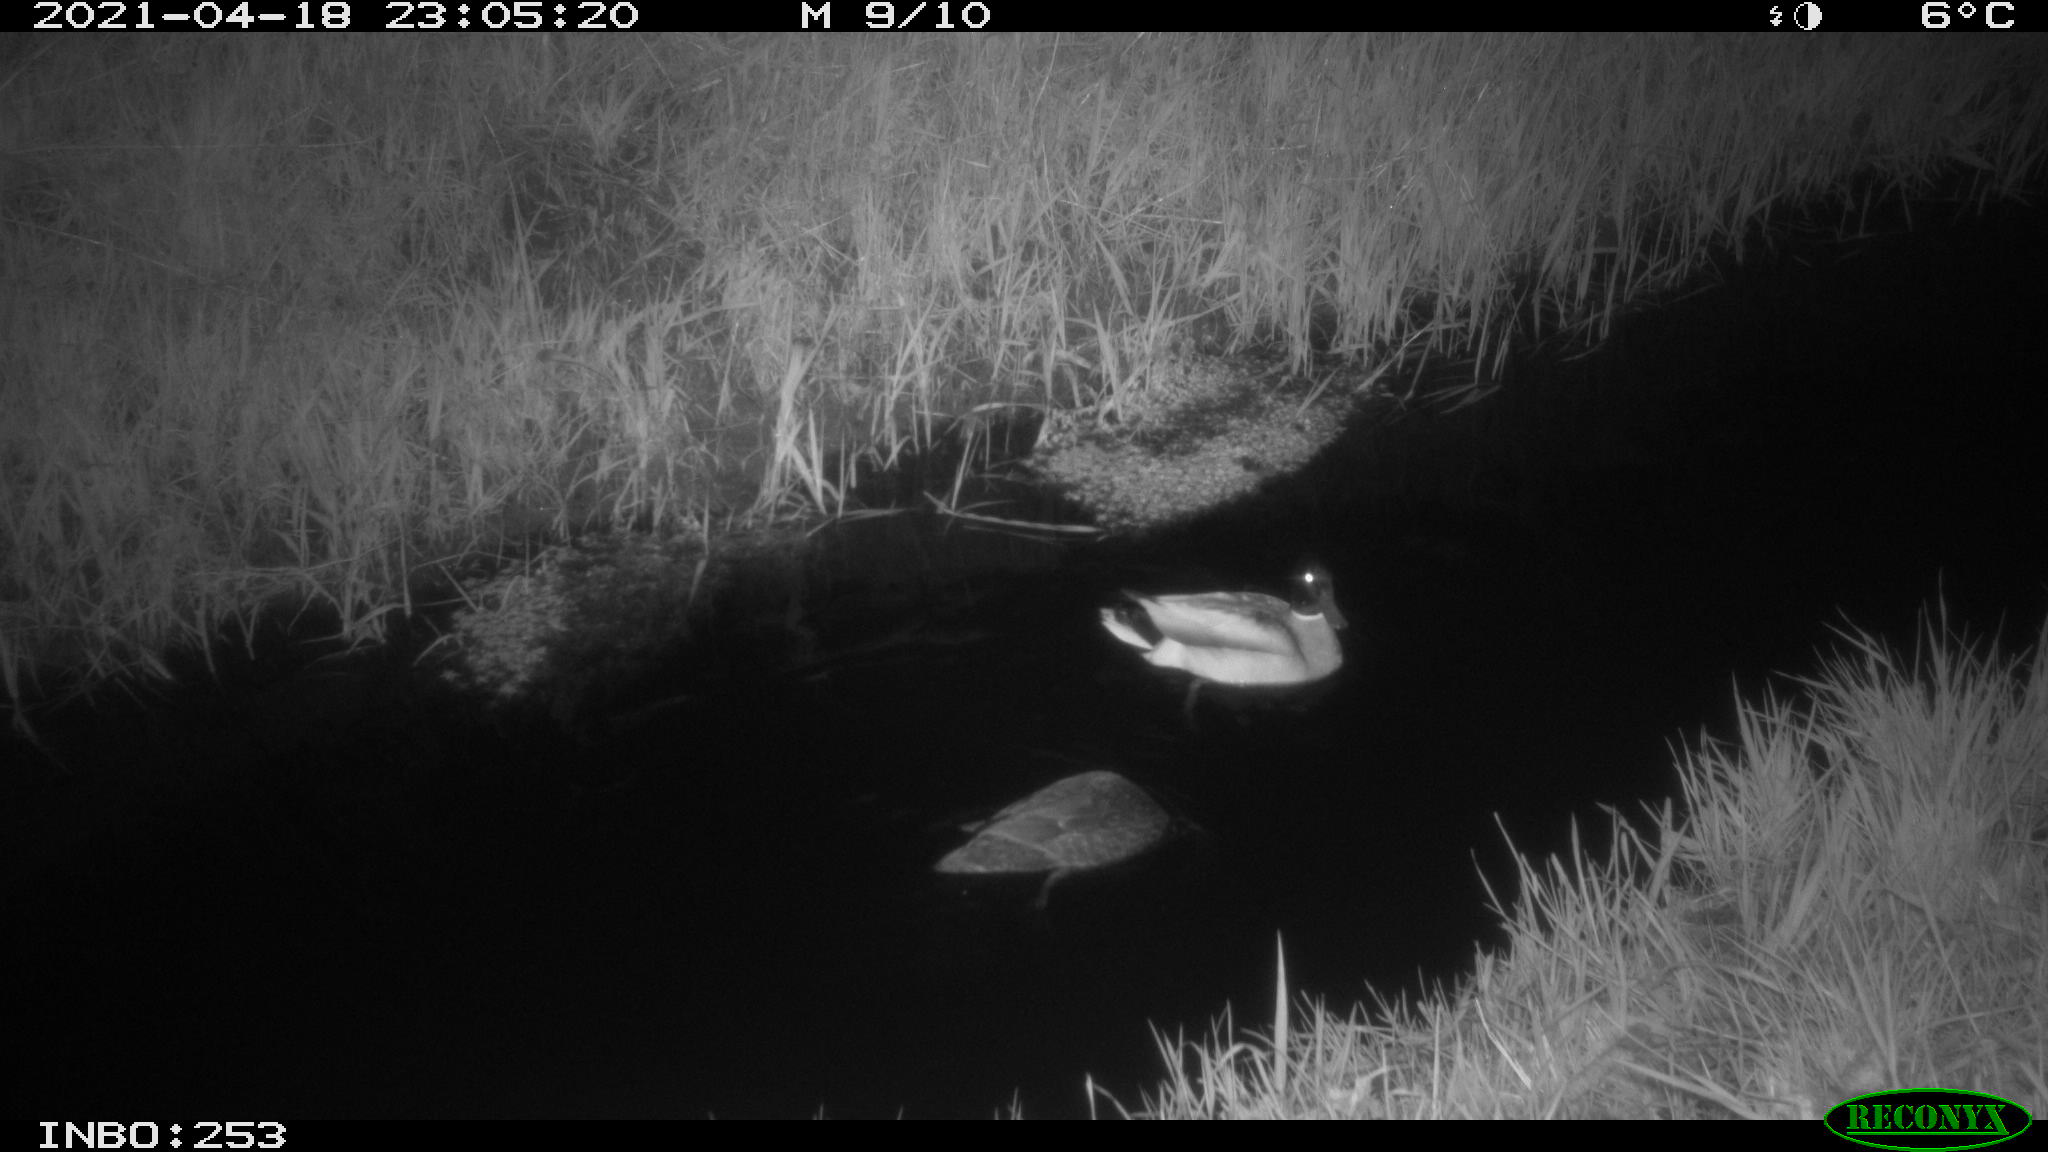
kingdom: Animalia
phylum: Chordata
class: Aves
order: Anseriformes
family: Anatidae
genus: Anas
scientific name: Anas platyrhynchos
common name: Mallard
